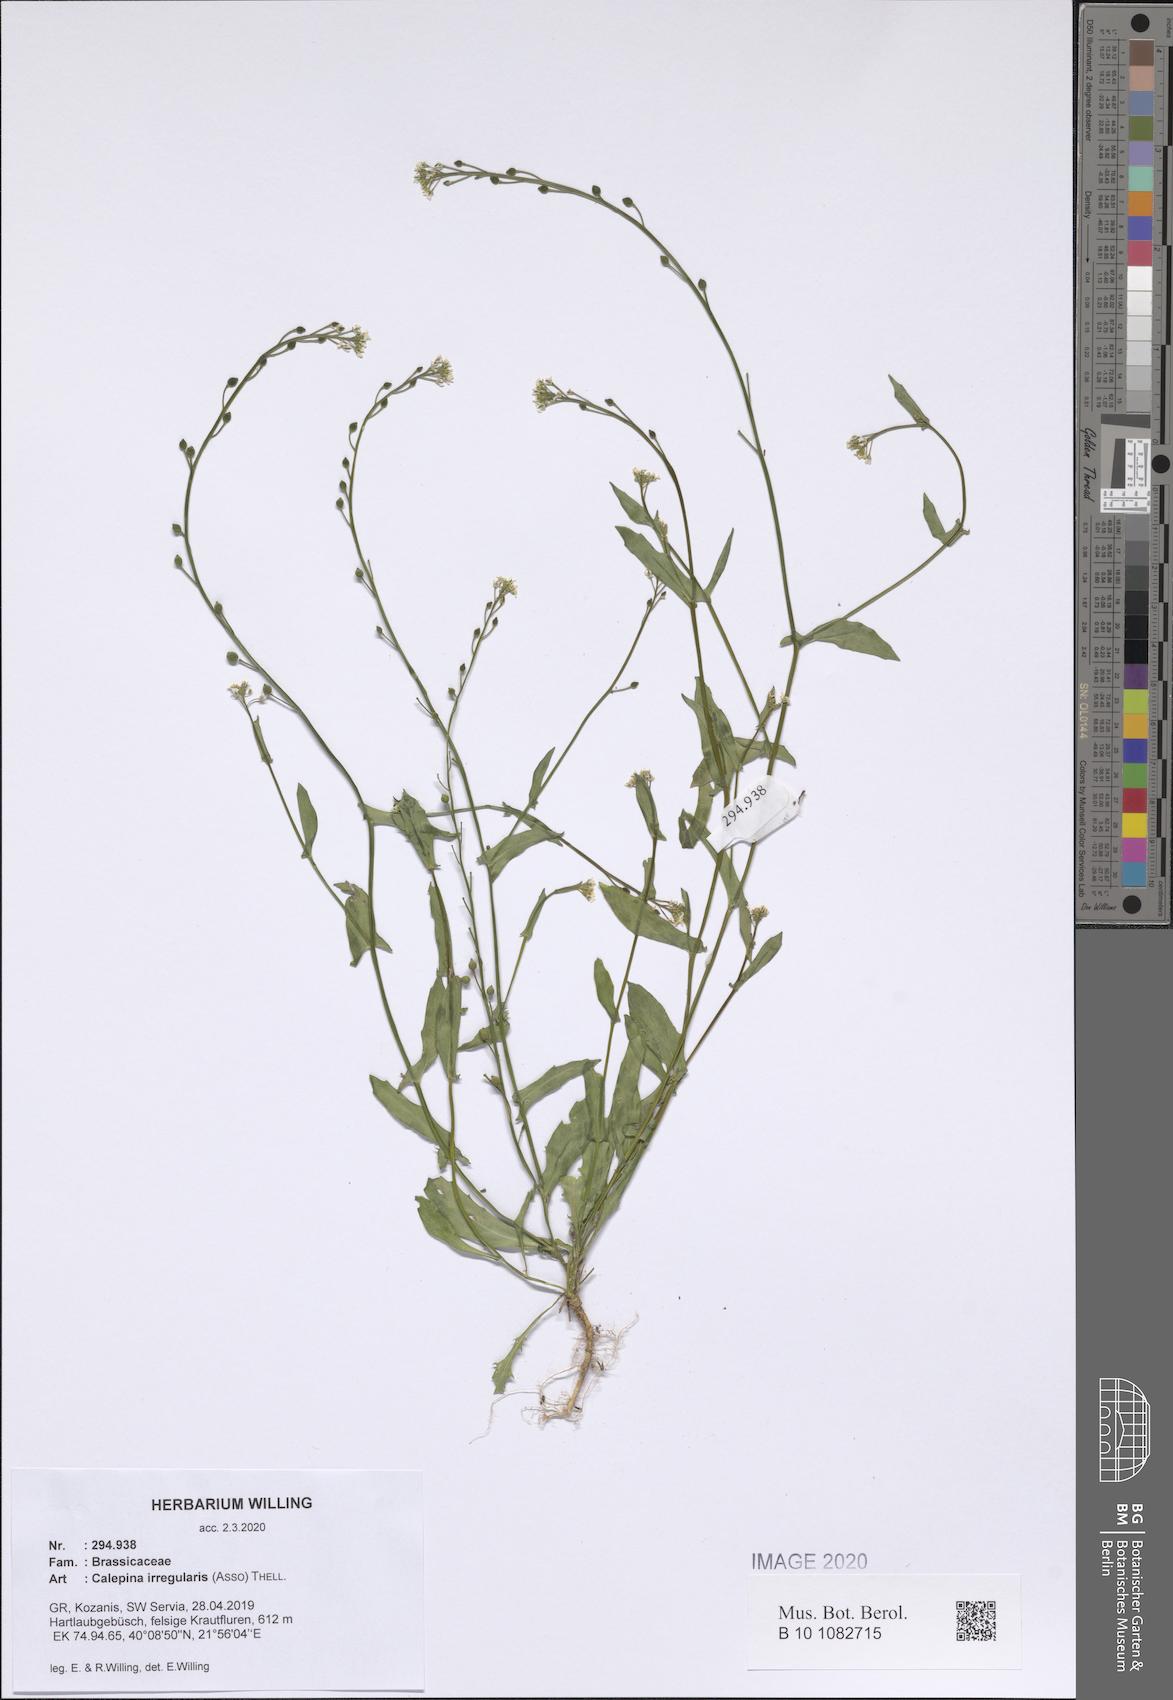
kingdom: Plantae
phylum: Tracheophyta
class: Magnoliopsida
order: Brassicales
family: Brassicaceae
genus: Calepina
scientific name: Calepina irregularis
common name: White ballmustard
